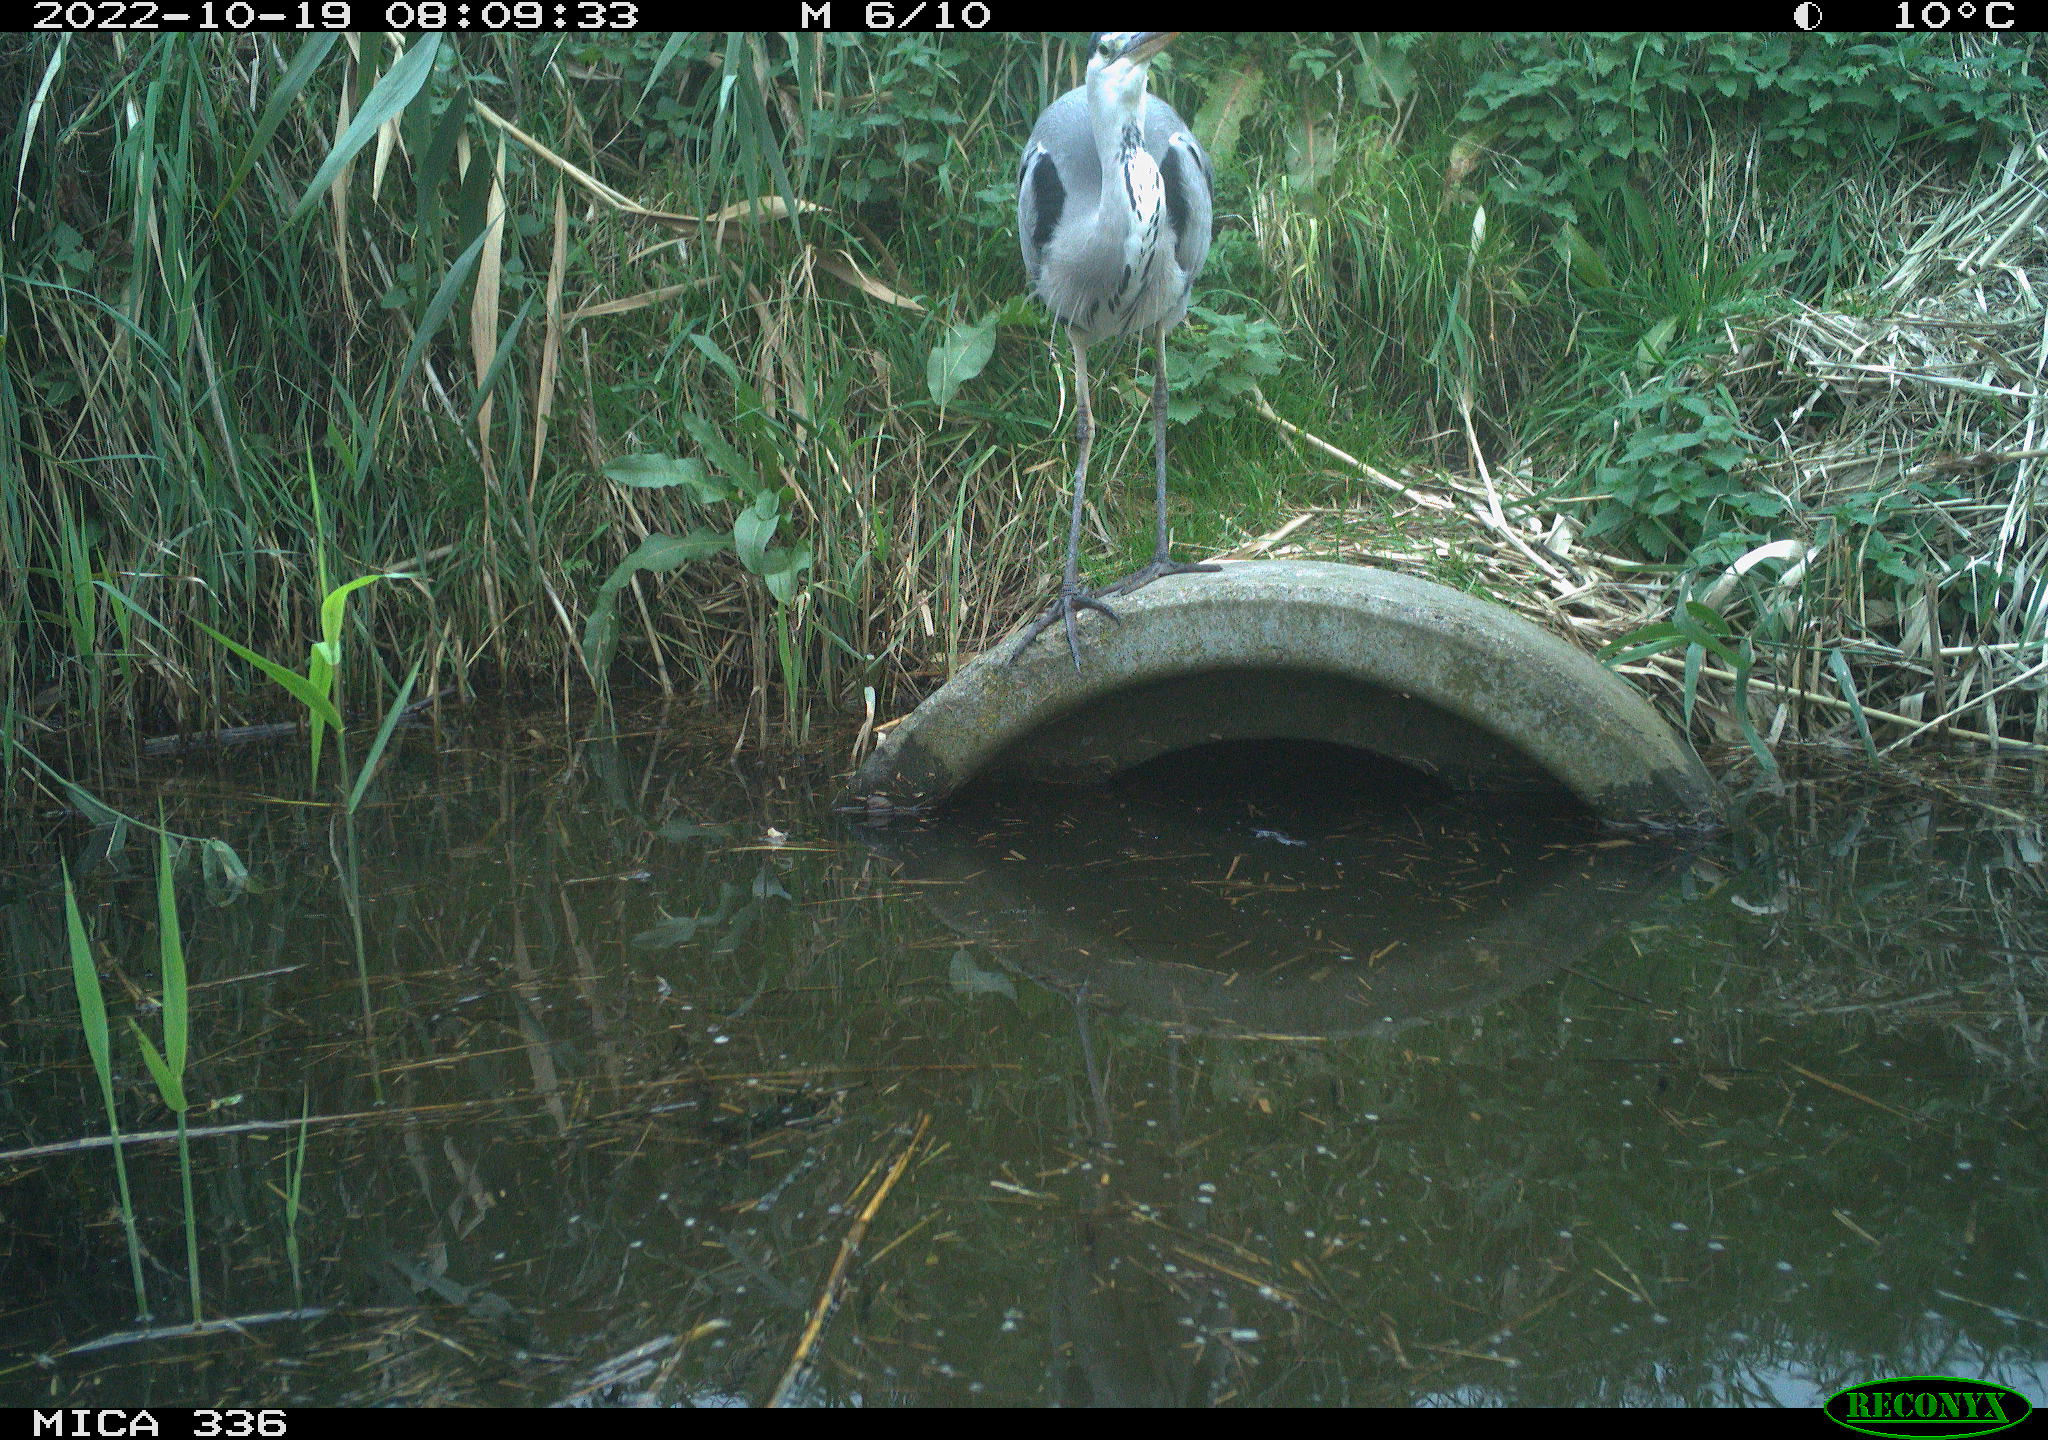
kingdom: Animalia
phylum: Chordata
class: Aves
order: Pelecaniformes
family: Ardeidae
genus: Ardea
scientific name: Ardea cinerea
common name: Grey heron
